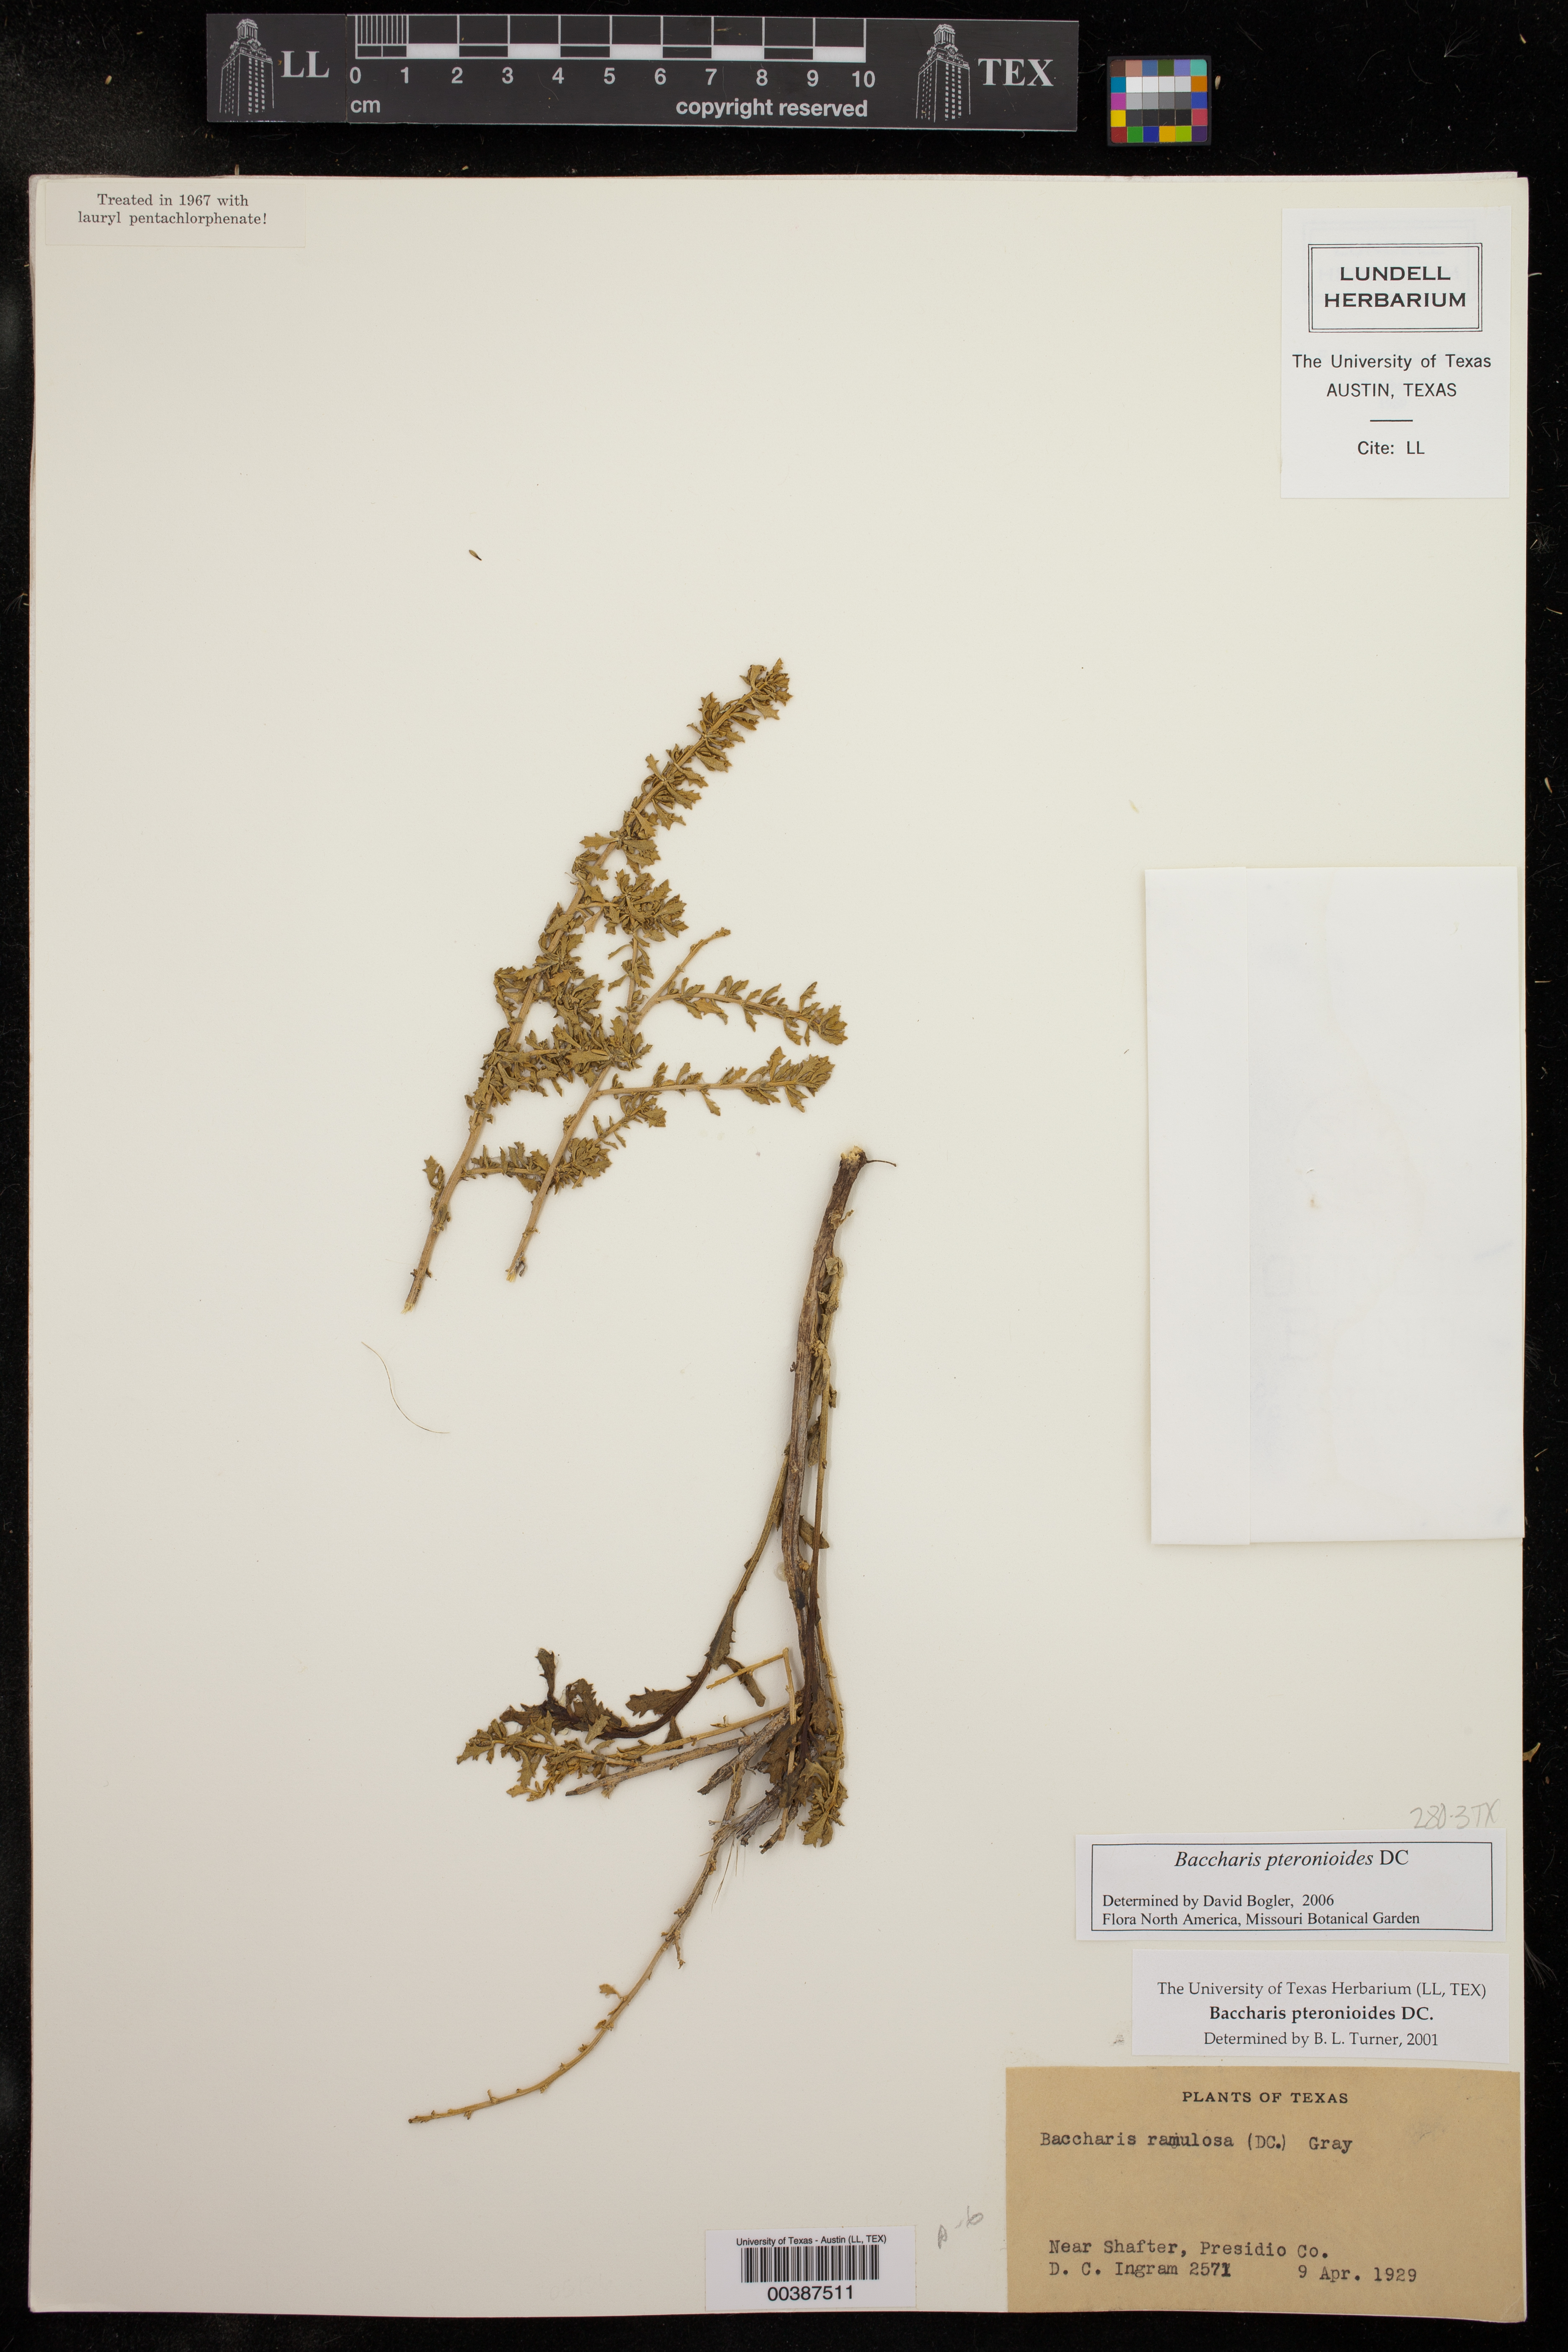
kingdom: Plantae
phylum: Tracheophyta
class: Magnoliopsida
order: Asterales
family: Asteraceae
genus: Baccharis
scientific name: Baccharis pteronioides
